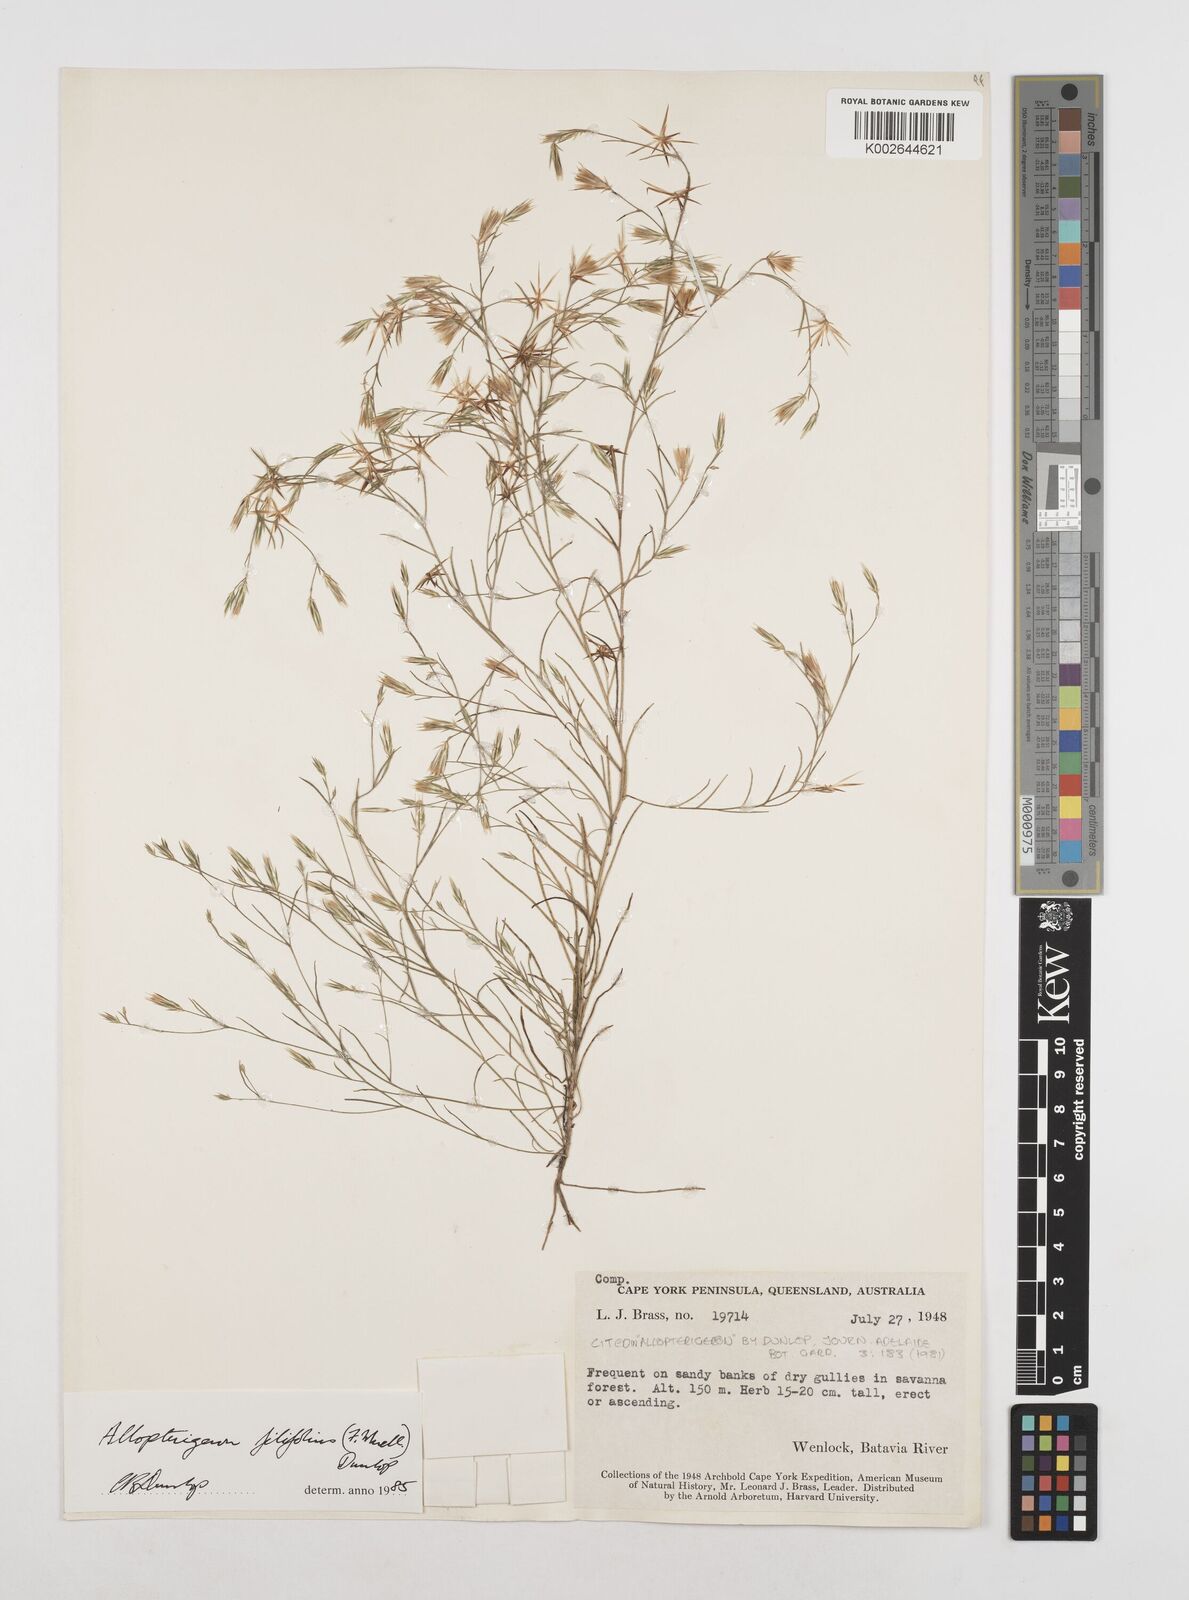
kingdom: Plantae
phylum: Tracheophyta
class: Magnoliopsida
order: Asterales
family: Asteraceae
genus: Allopterigeron
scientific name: Allopterigeron filifolius
